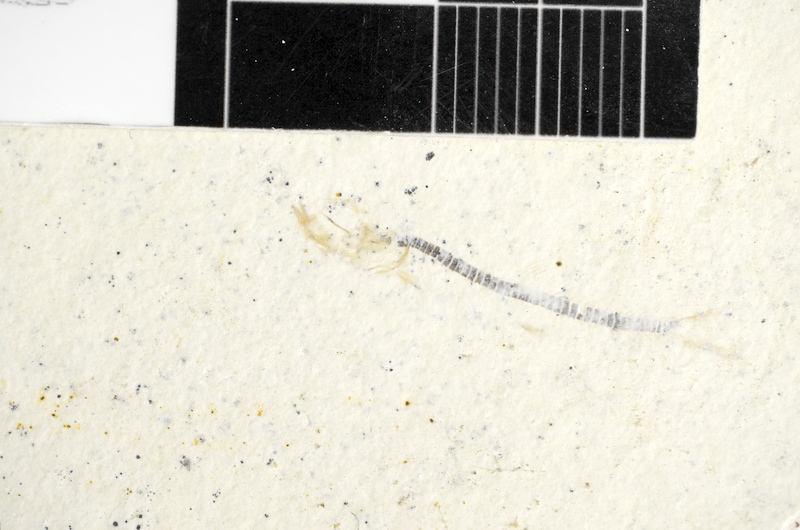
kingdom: Animalia
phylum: Chordata
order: Salmoniformes
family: Orthogonikleithridae
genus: Orthogonikleithrus
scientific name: Orthogonikleithrus hoelli
